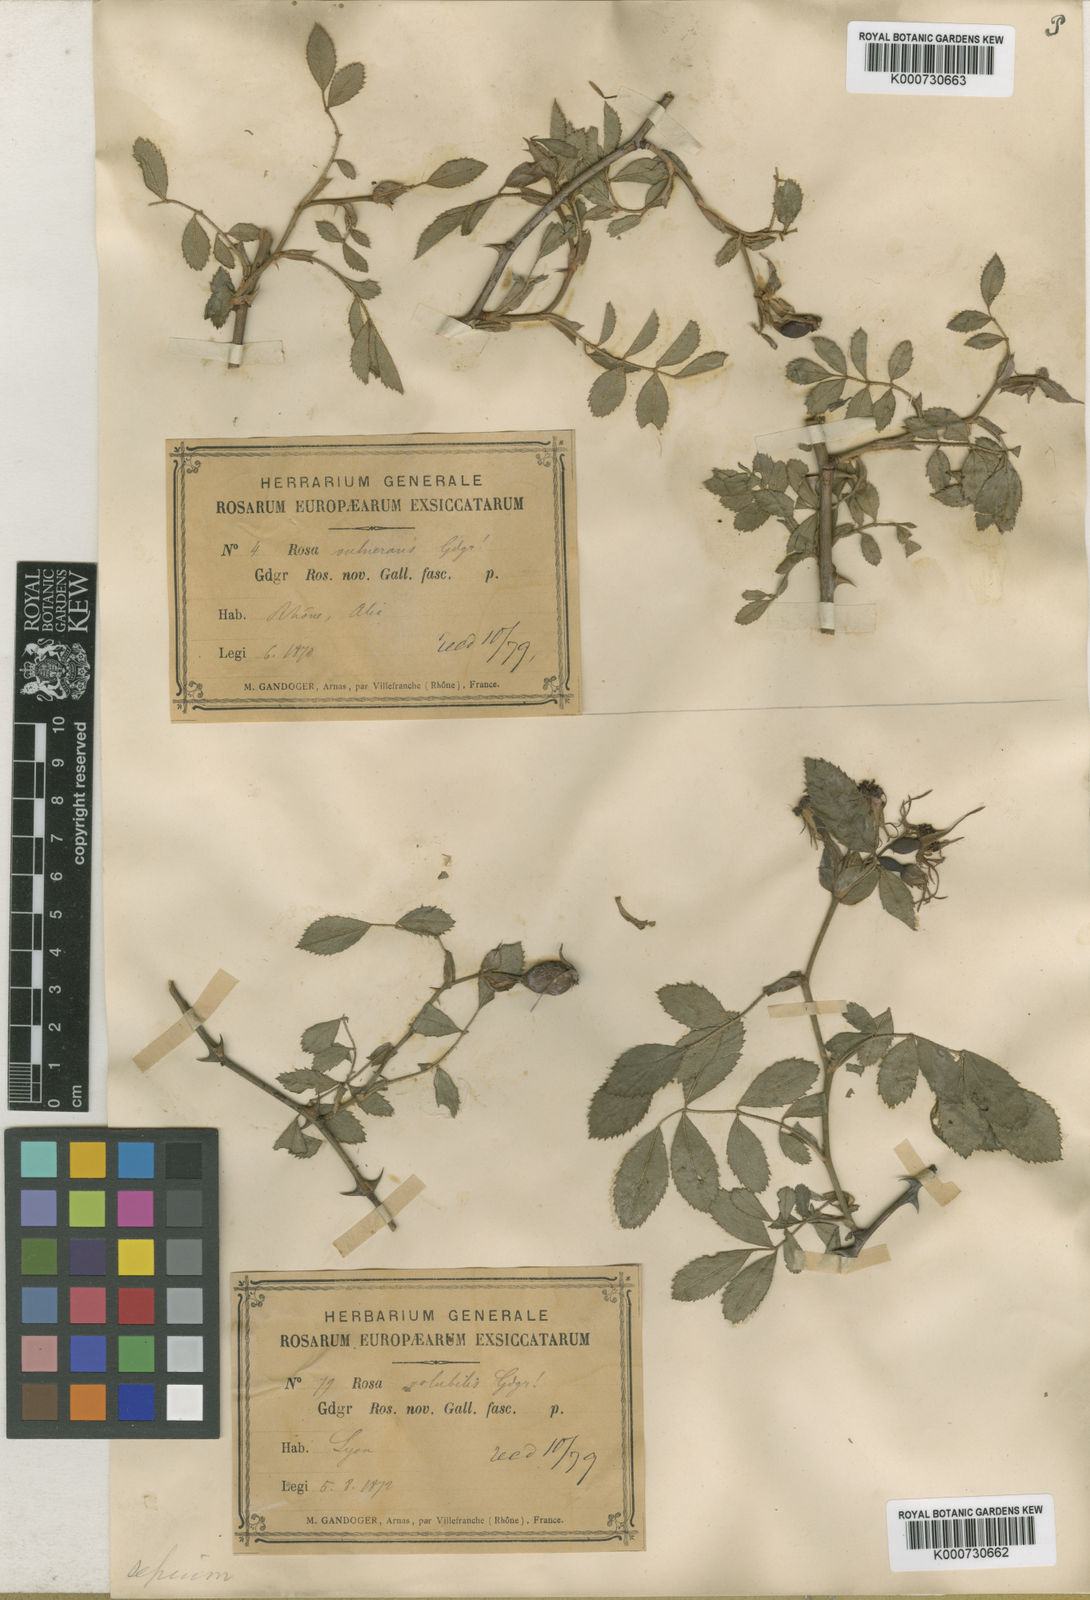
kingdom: Plantae
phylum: Tracheophyta
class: Magnoliopsida
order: Rosales
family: Rosaceae
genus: Rosa
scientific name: Rosa agrestis
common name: Fieldbriar
